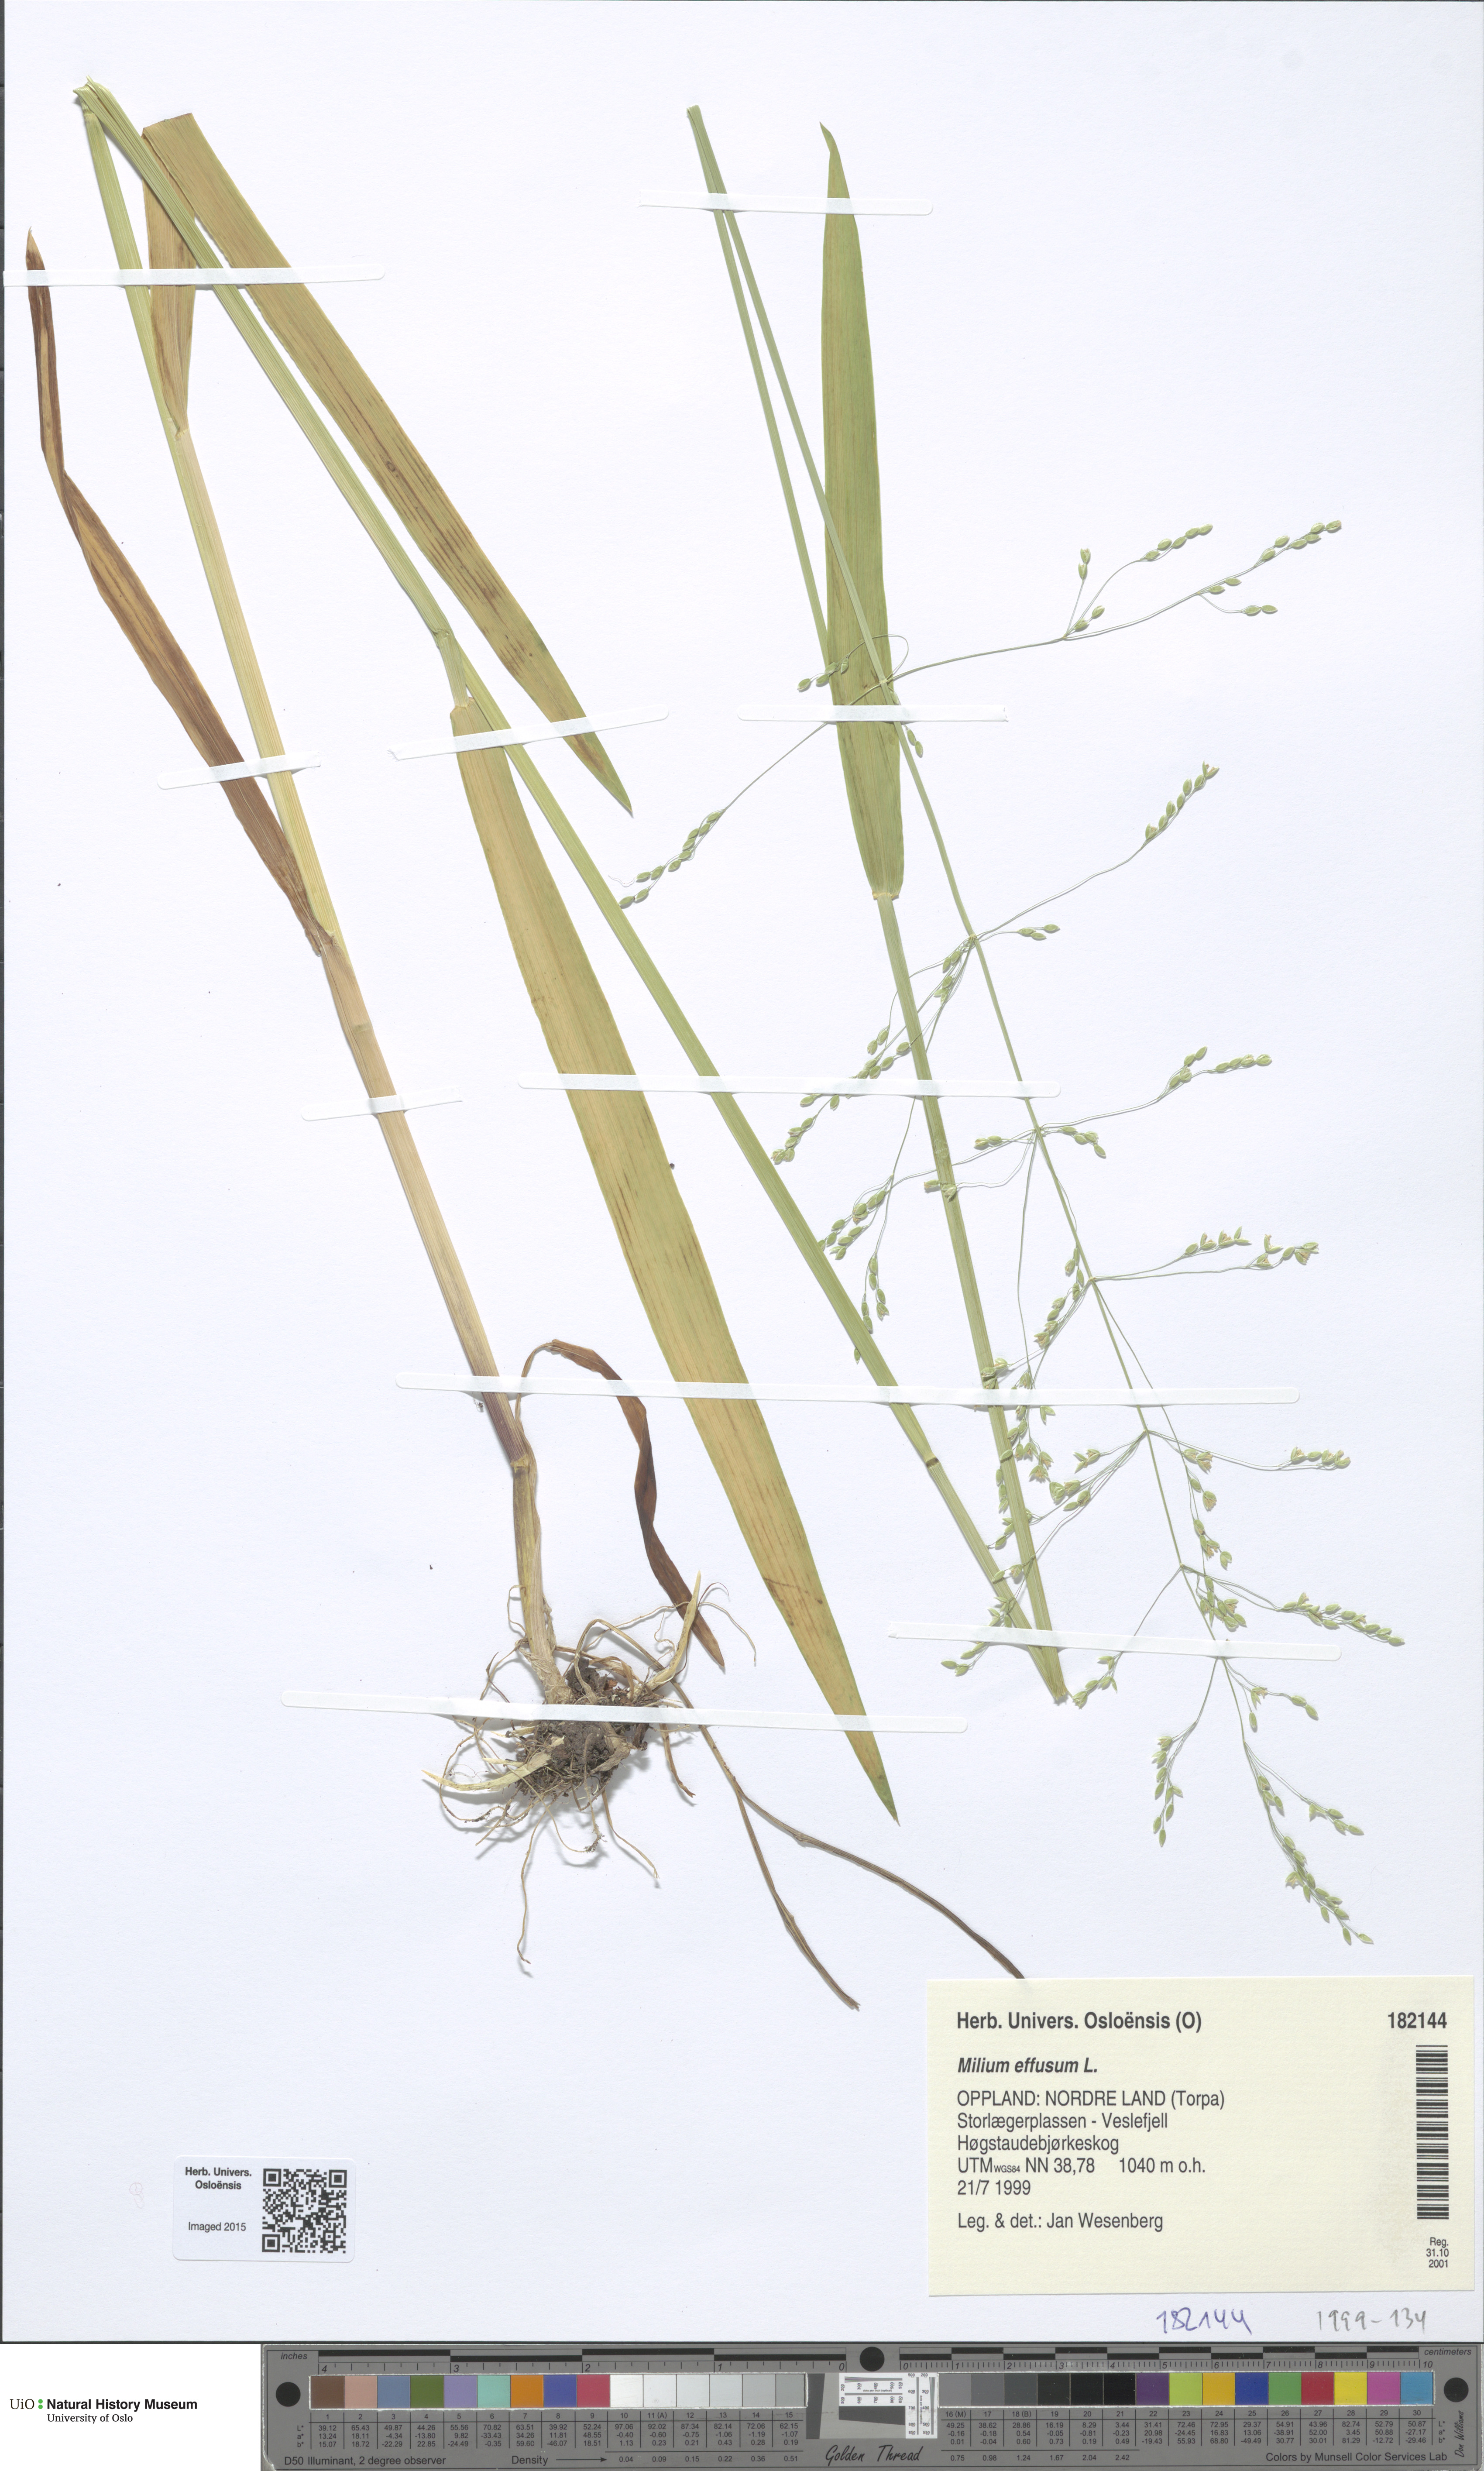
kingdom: Plantae
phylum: Tracheophyta
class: Liliopsida
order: Poales
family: Poaceae
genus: Milium
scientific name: Milium effusum
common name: Wood millet
